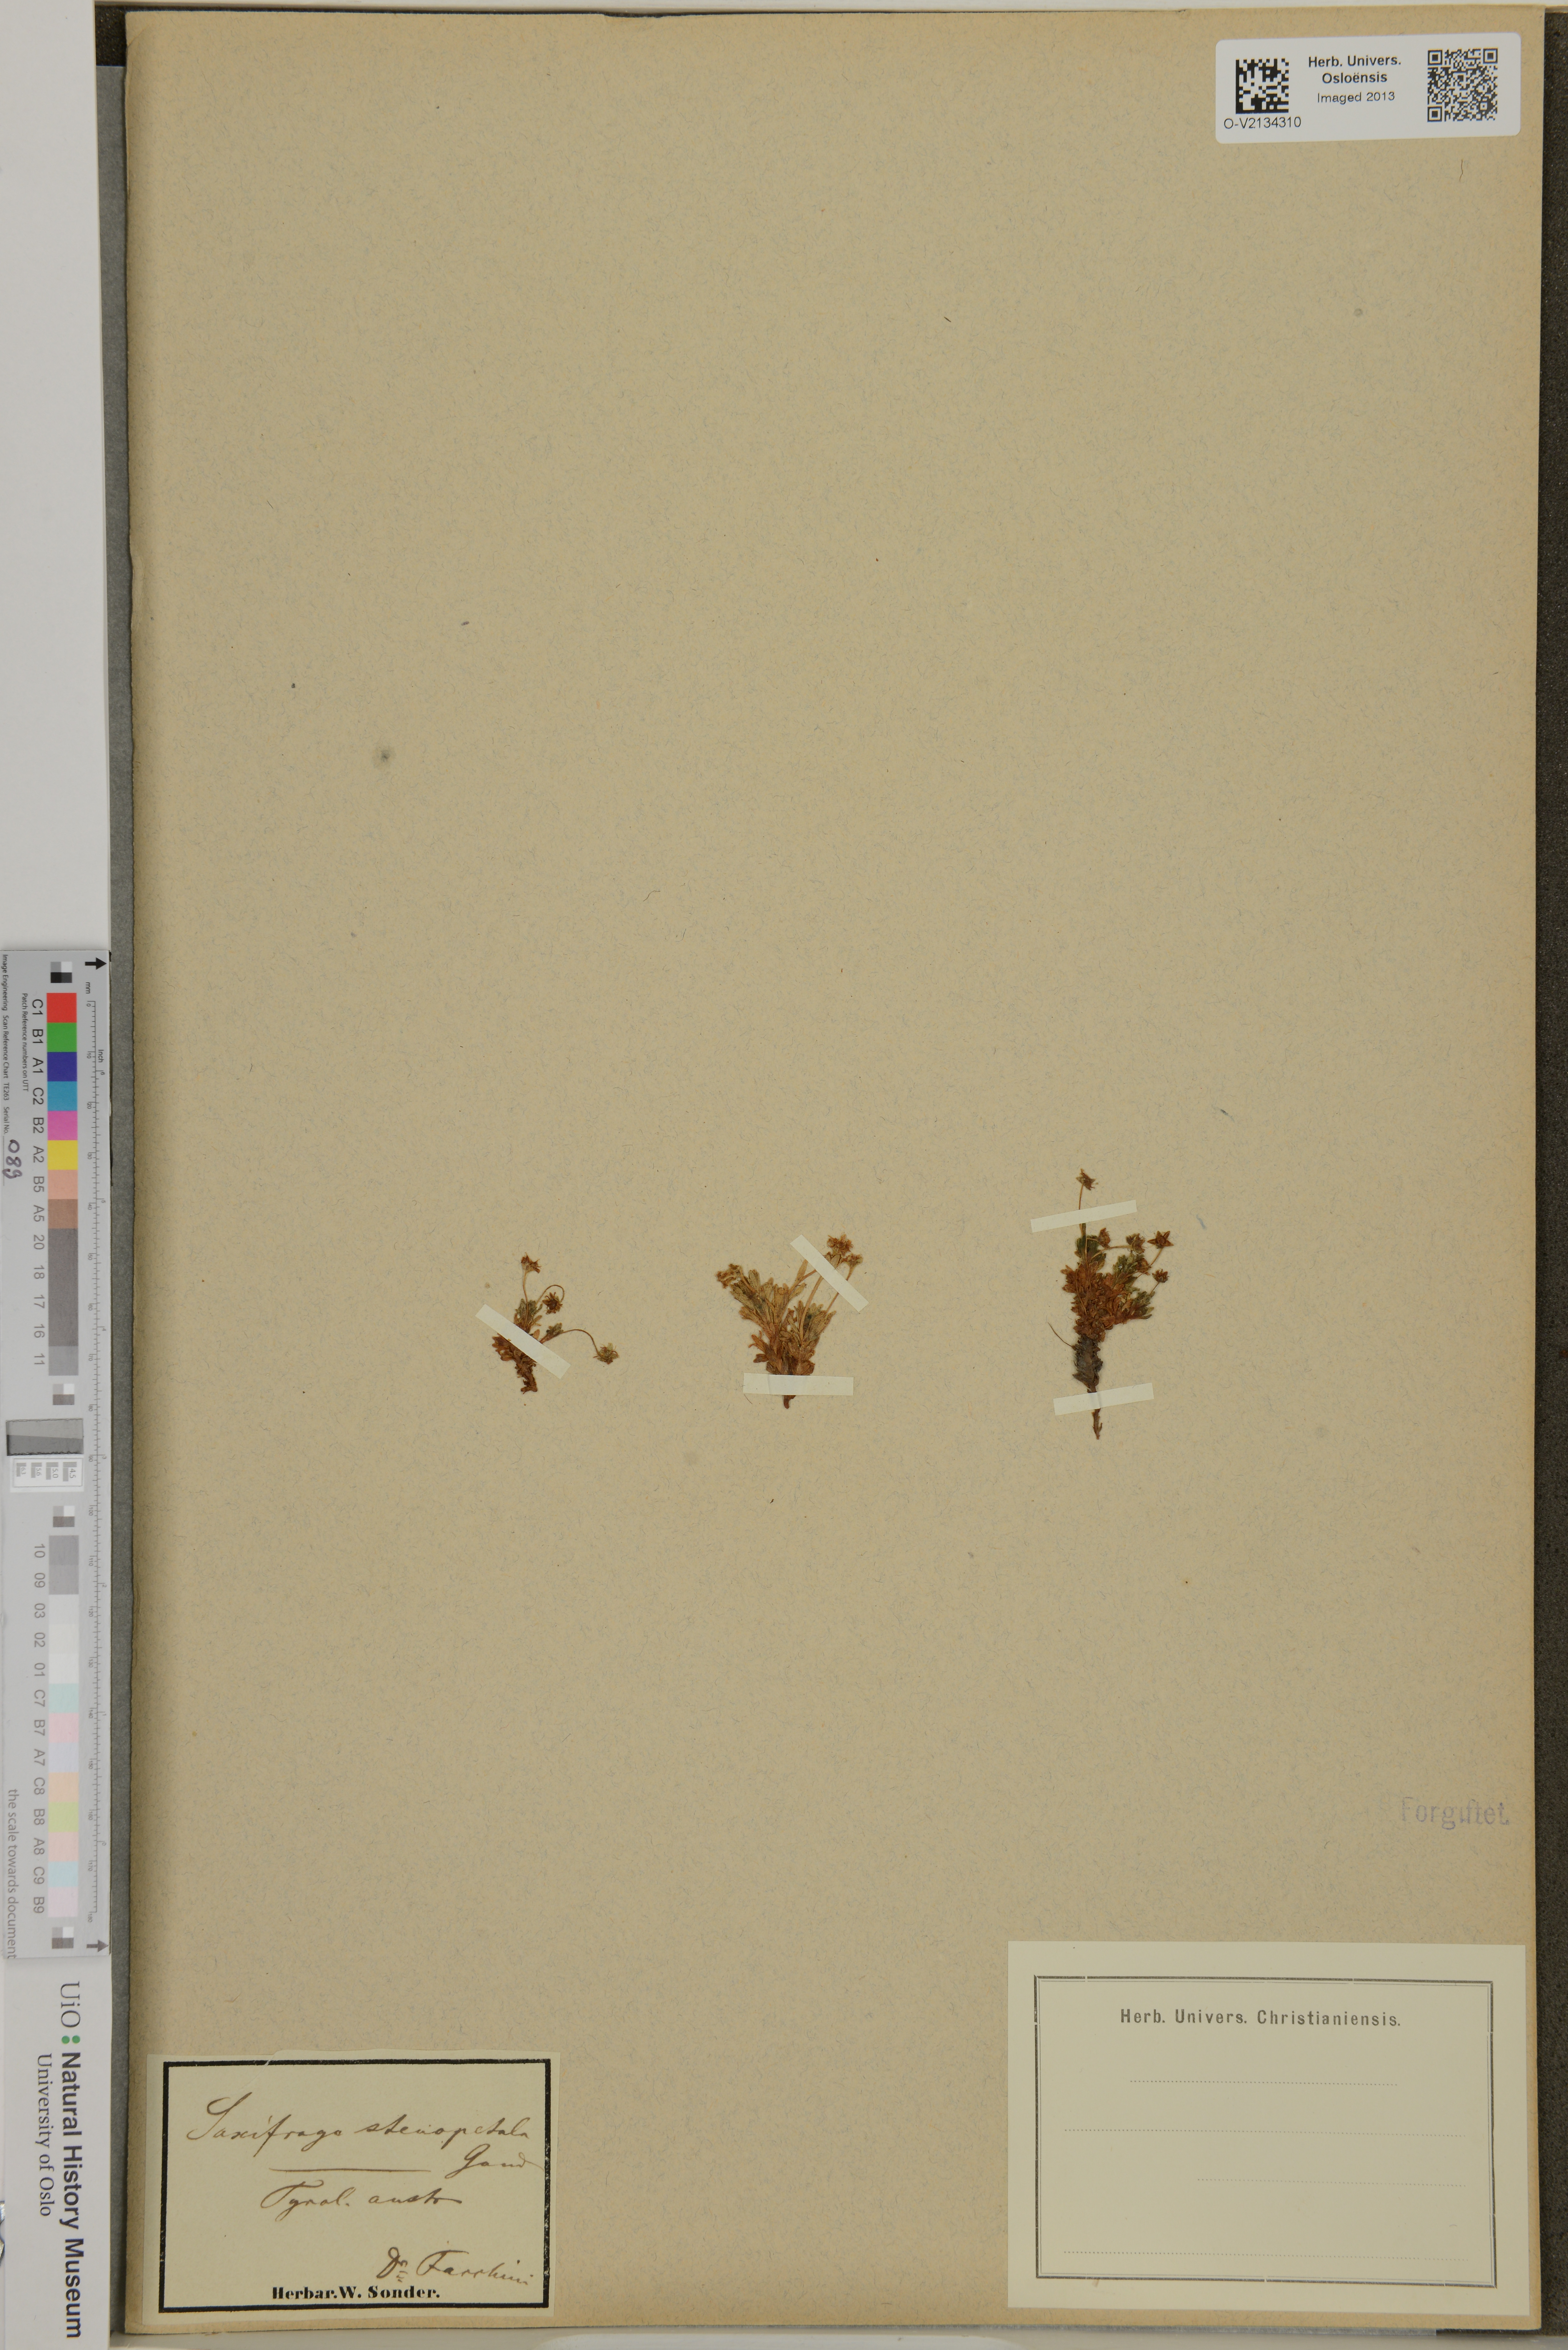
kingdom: Plantae
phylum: Tracheophyta
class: Magnoliopsida
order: Saxifragales
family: Saxifragaceae
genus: Saxifraga
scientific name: Saxifraga aphylla
